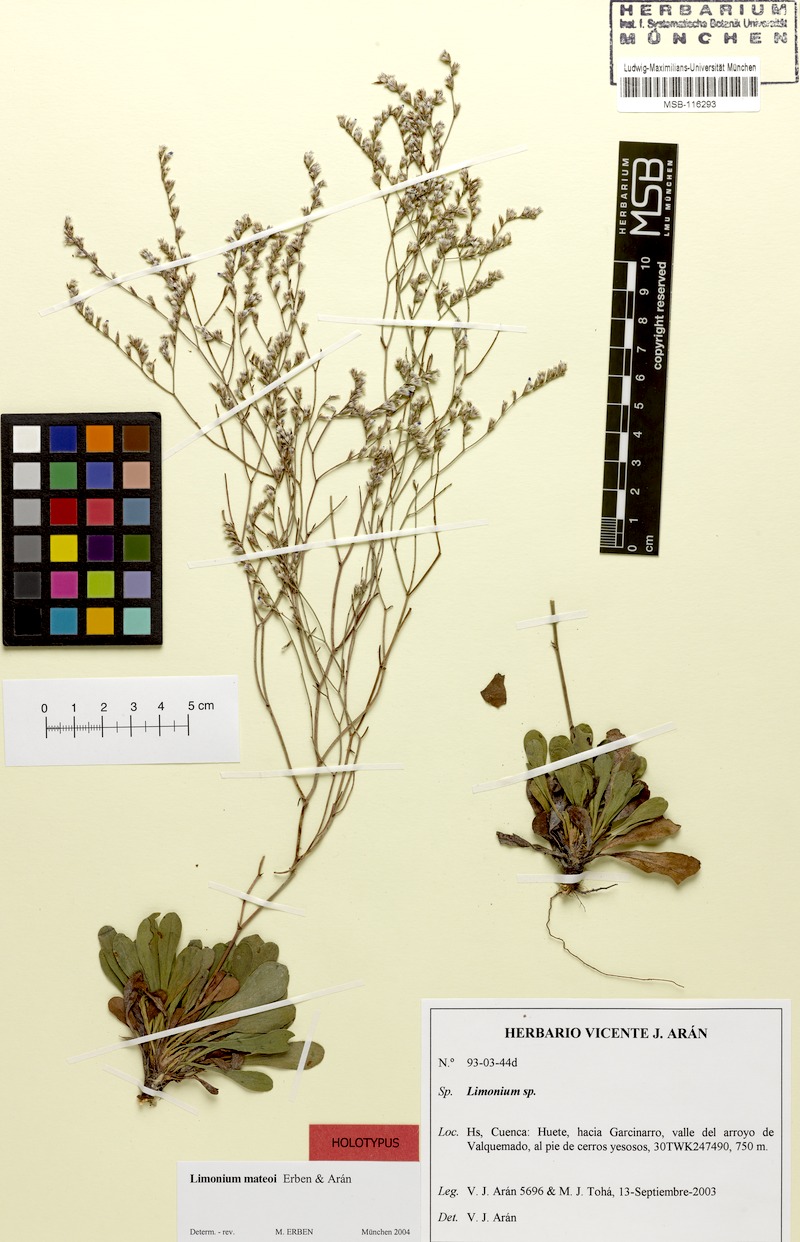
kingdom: Plantae
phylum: Tracheophyta
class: Magnoliopsida
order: Caryophyllales
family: Plumbaginaceae
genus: Limonium
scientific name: Limonium mateoi
